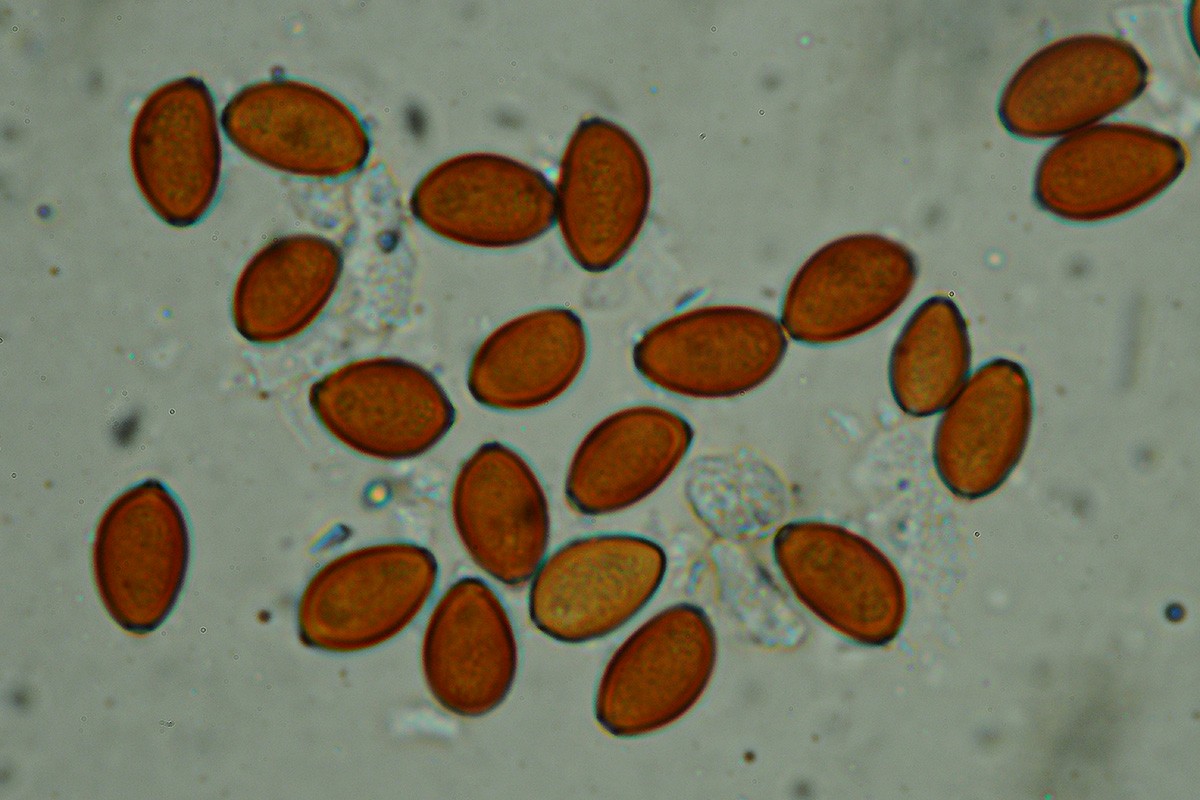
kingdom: Fungi
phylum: Basidiomycota
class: Agaricomycetes
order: Agaricales
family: Bolbitiaceae
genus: Conocybe
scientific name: Conocybe bisporigera
